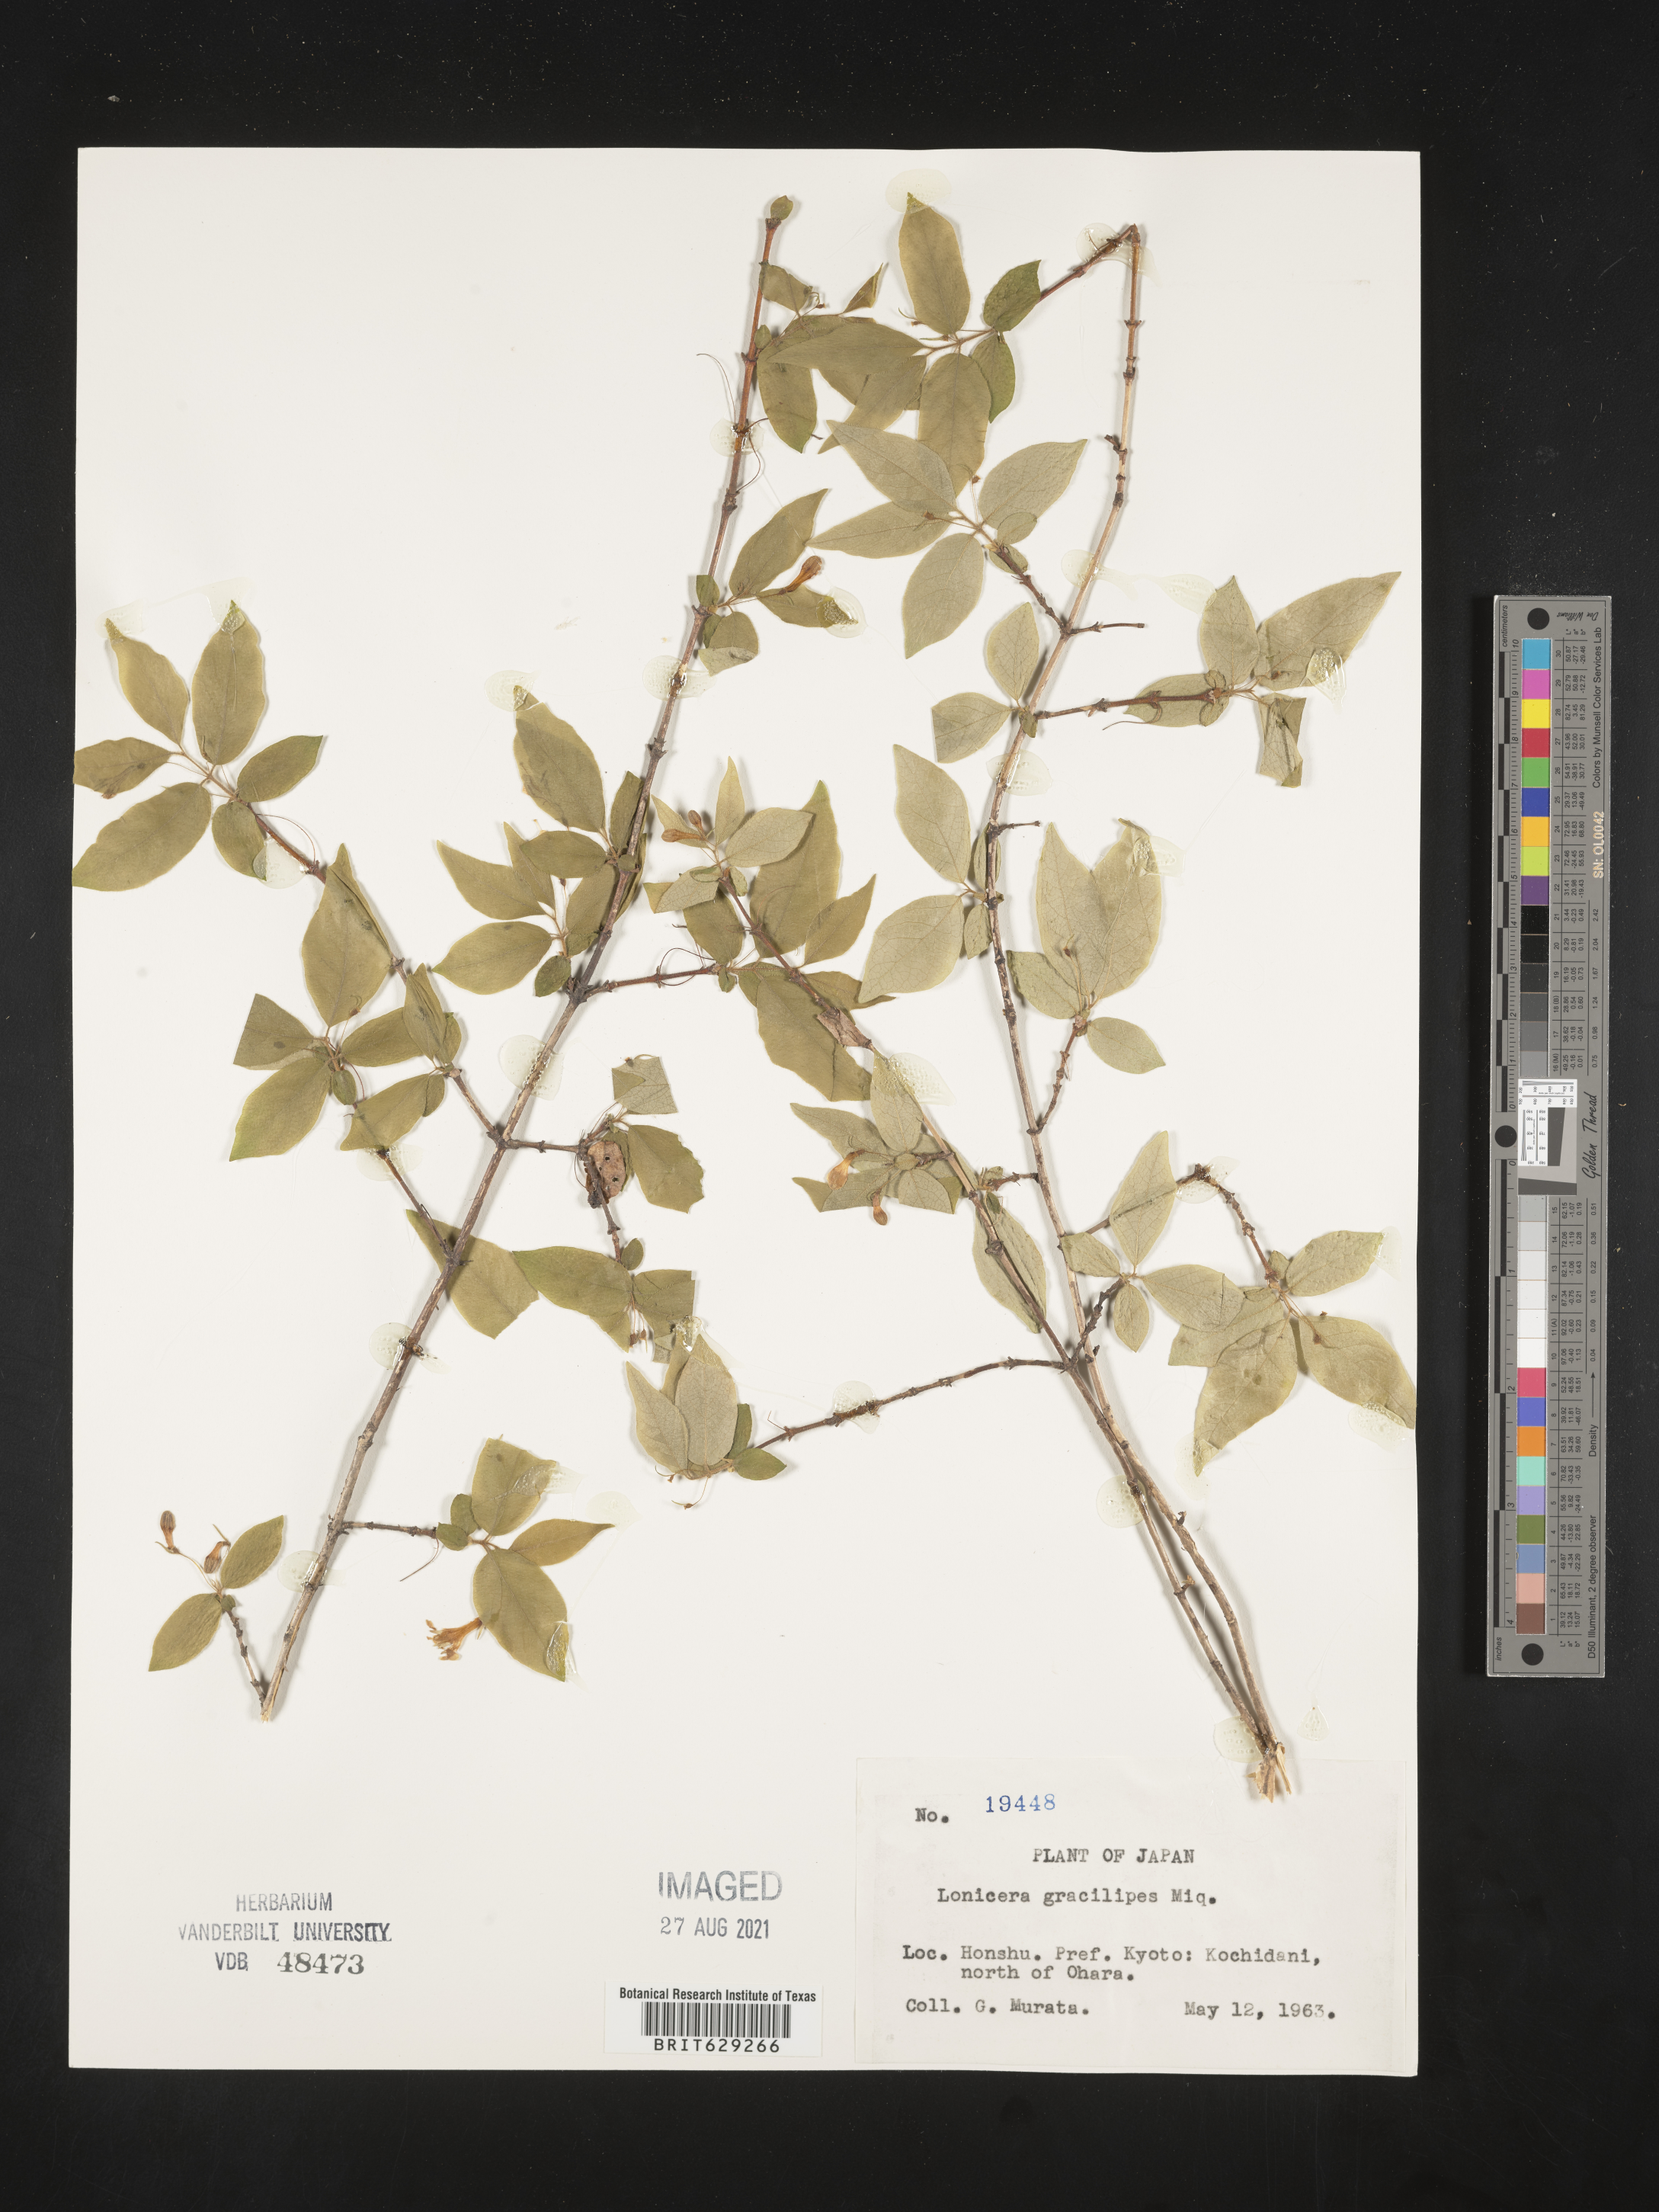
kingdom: Plantae
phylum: Tracheophyta
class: Magnoliopsida
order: Dipsacales
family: Caprifoliaceae
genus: Lonicera
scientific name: Lonicera gracilipes
